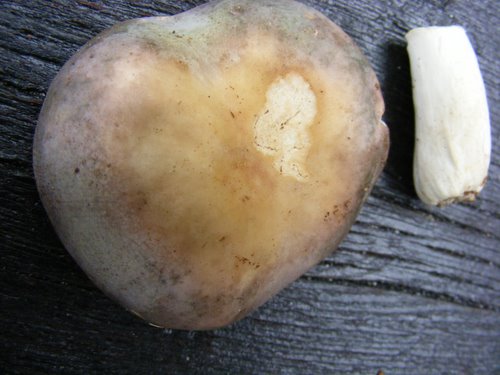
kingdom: Fungi
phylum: Basidiomycota
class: Agaricomycetes
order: Russulales
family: Russulaceae
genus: Russula
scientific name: Russula parazurea
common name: blågrå skørhat
